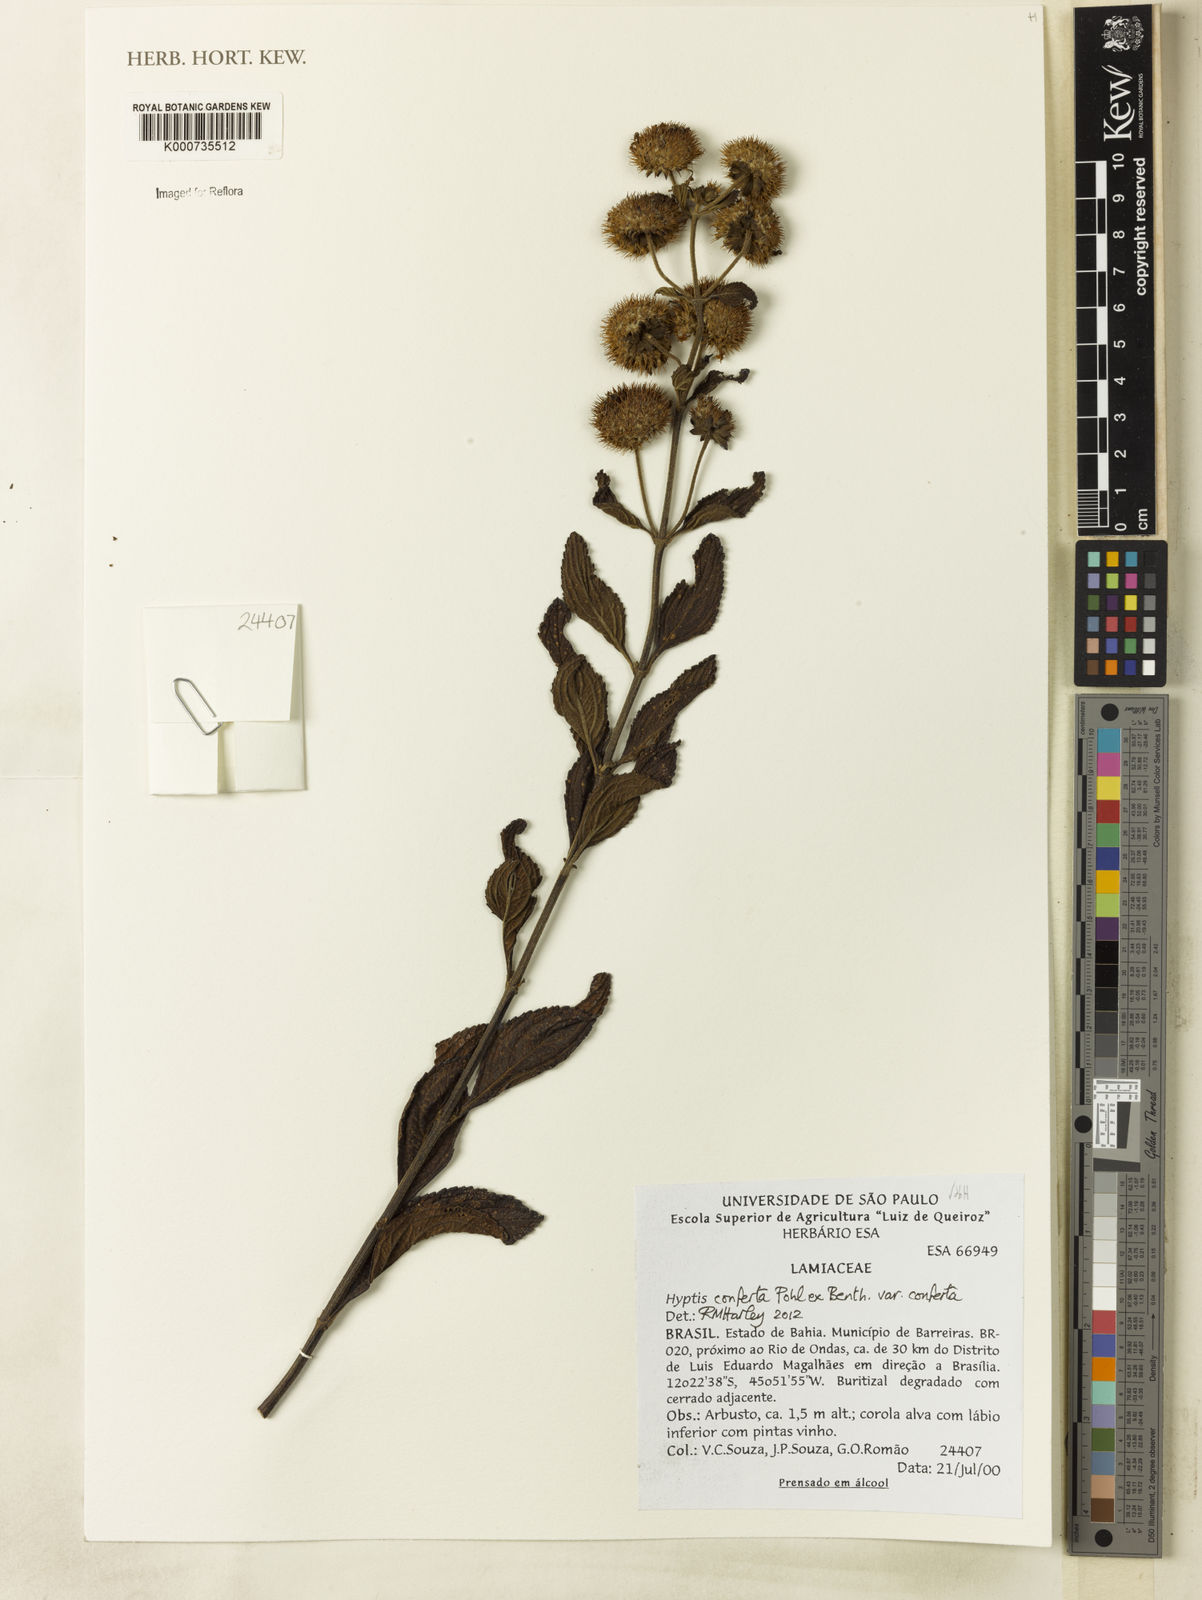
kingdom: Plantae
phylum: Tracheophyta
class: Magnoliopsida
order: Lamiales
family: Lamiaceae
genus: Hyptis
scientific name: Hyptis conferta
